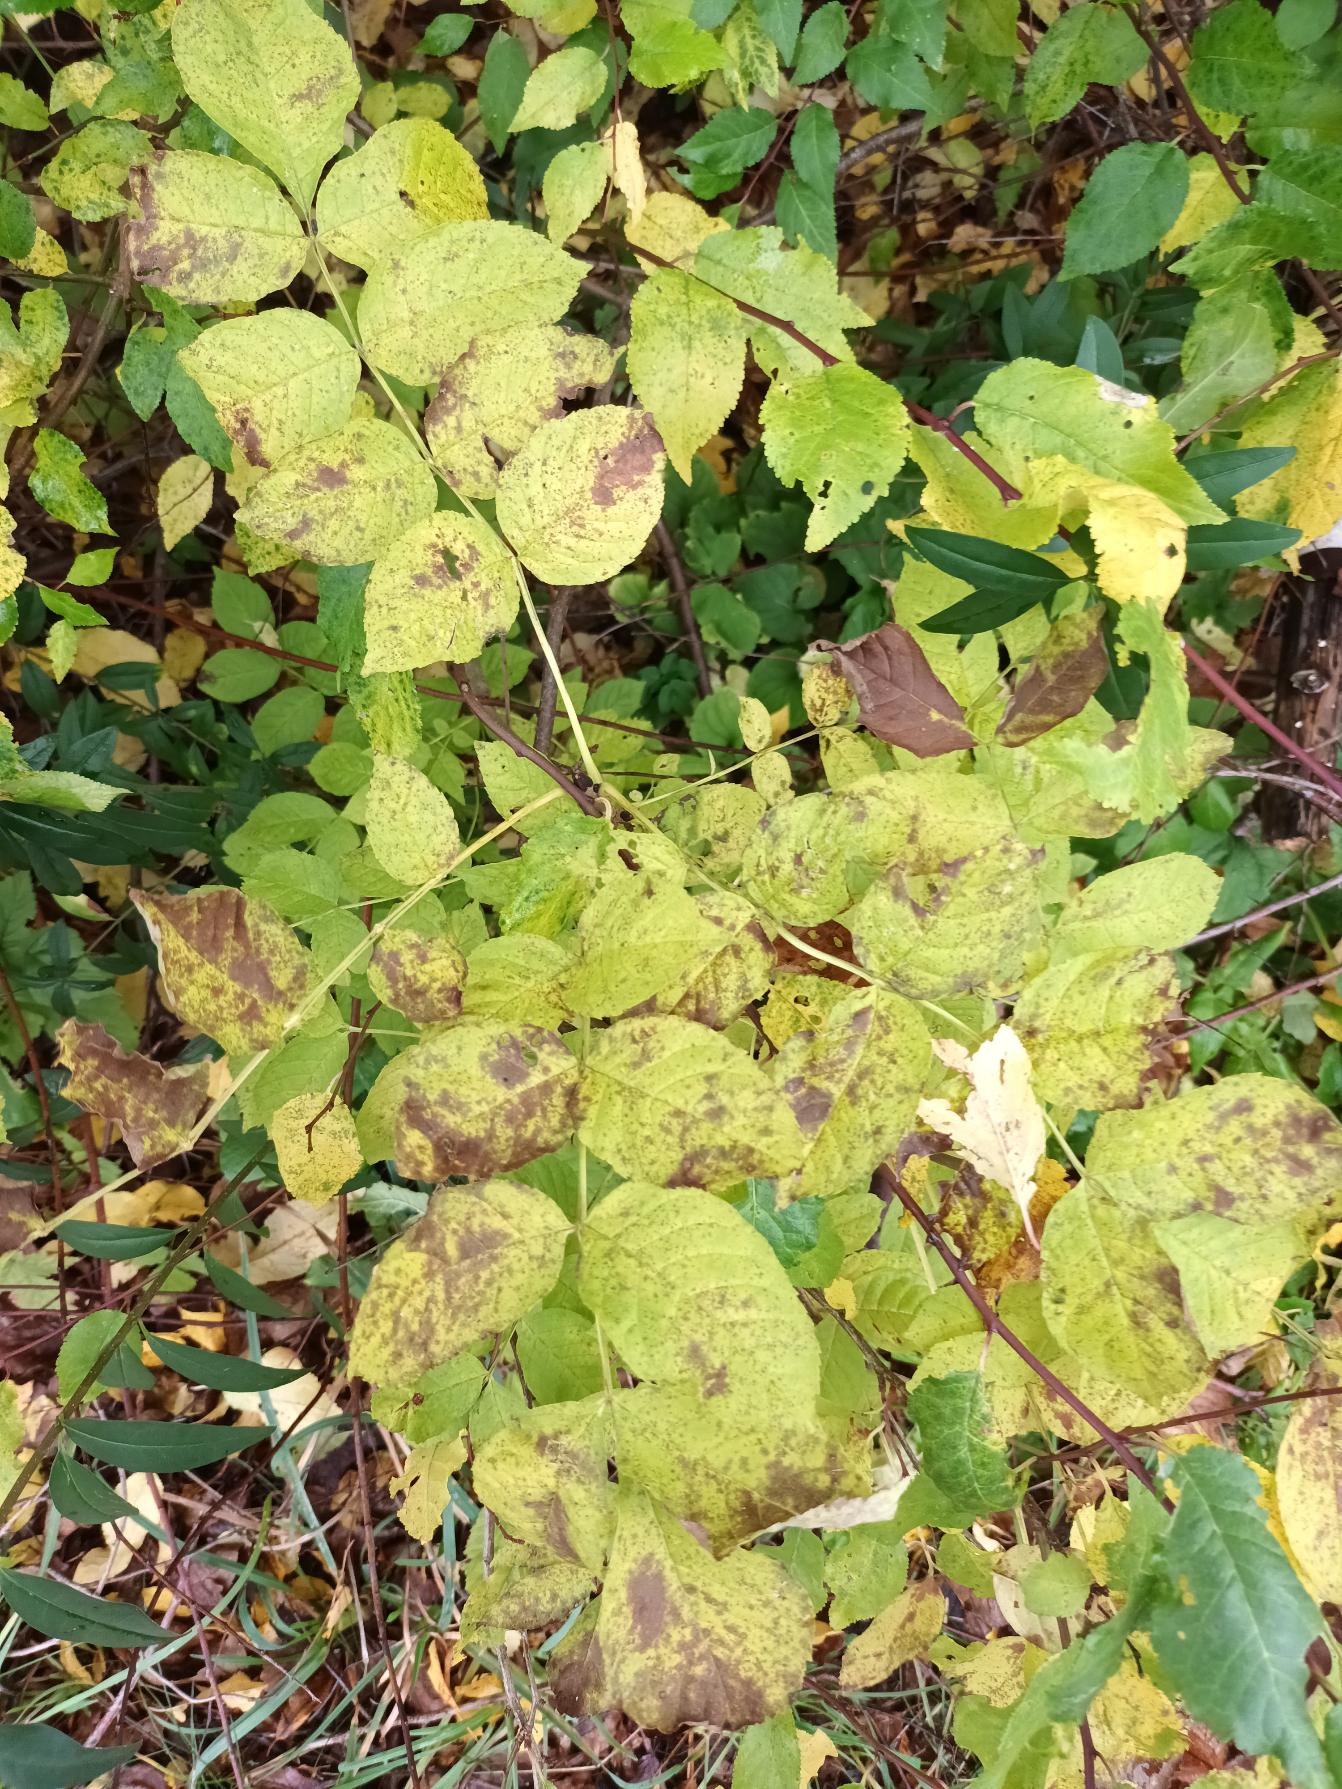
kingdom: Plantae
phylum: Tracheophyta
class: Magnoliopsida
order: Lamiales
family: Oleaceae
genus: Fraxinus
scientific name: Fraxinus excelsior
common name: Ask
